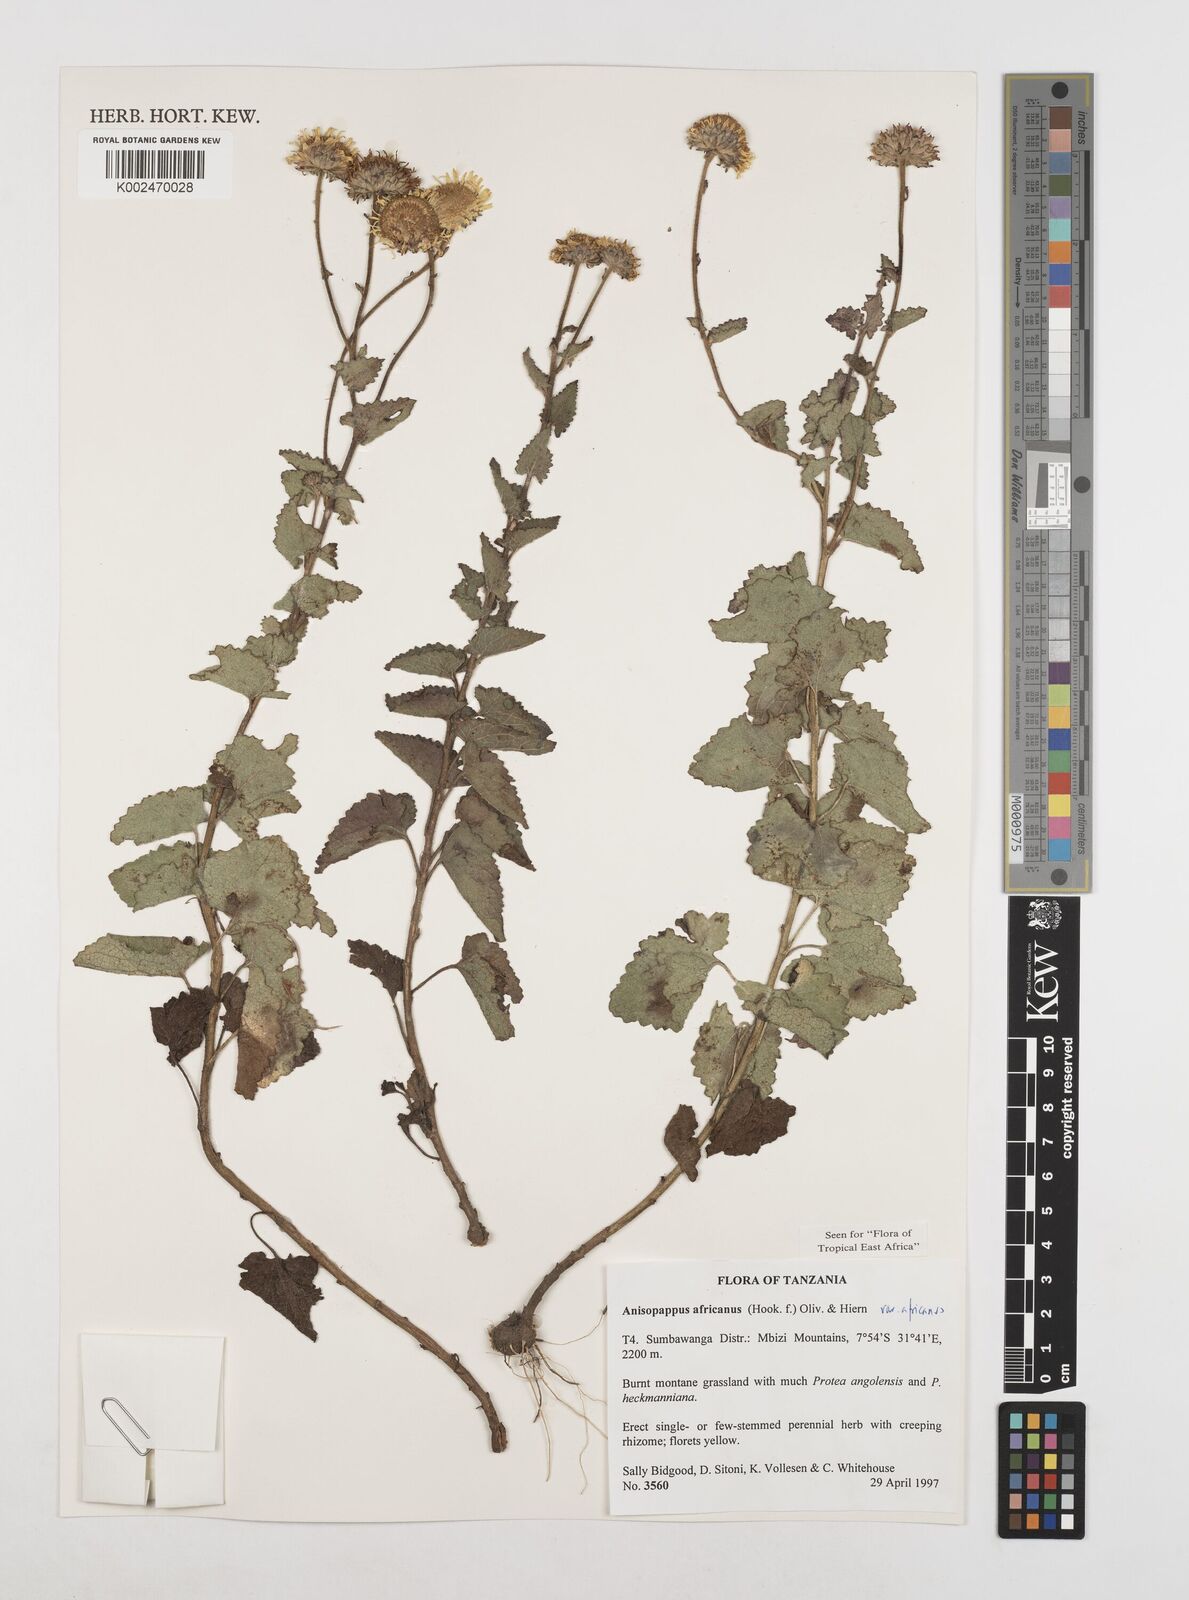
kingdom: Plantae
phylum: Tracheophyta
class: Magnoliopsida
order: Asterales
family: Asteraceae
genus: Anisopappus
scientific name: Anisopappus africanus
